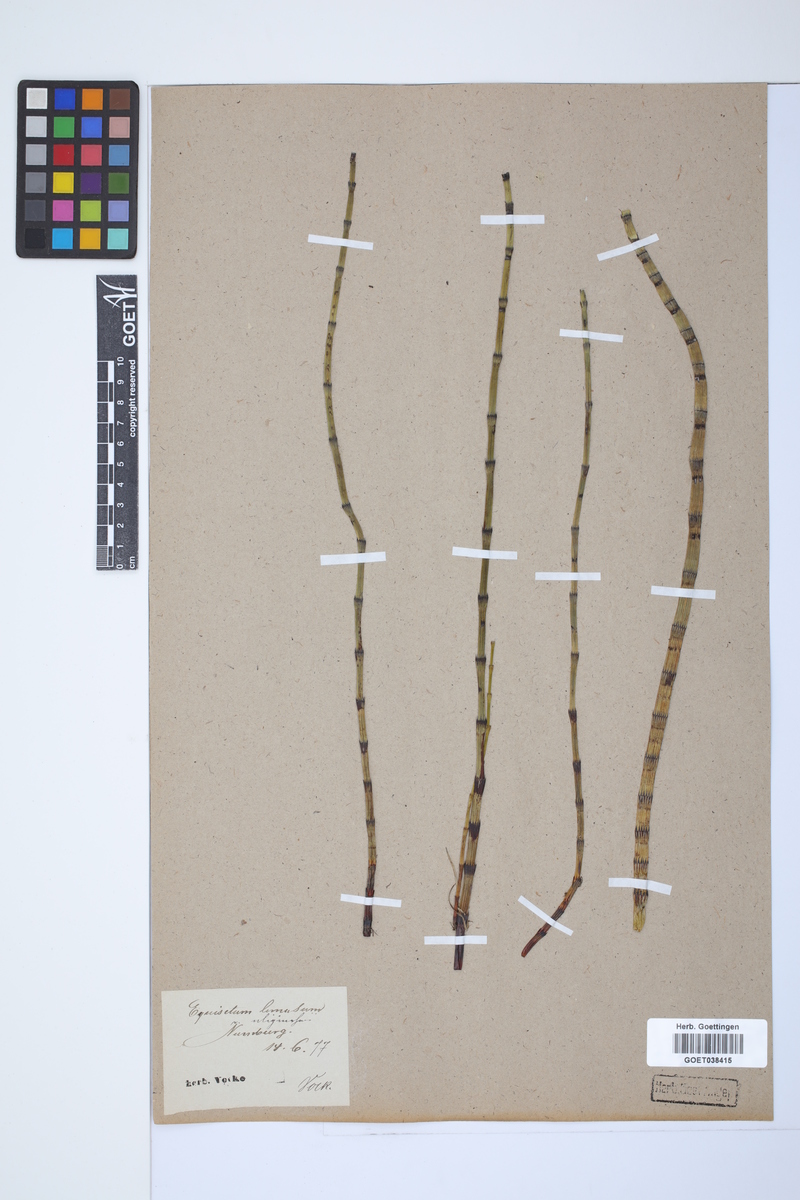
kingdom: Plantae
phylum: Tracheophyta
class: Polypodiopsida
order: Equisetales
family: Equisetaceae
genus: Equisetum
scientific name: Equisetum fluviatile
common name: Water horsetail
